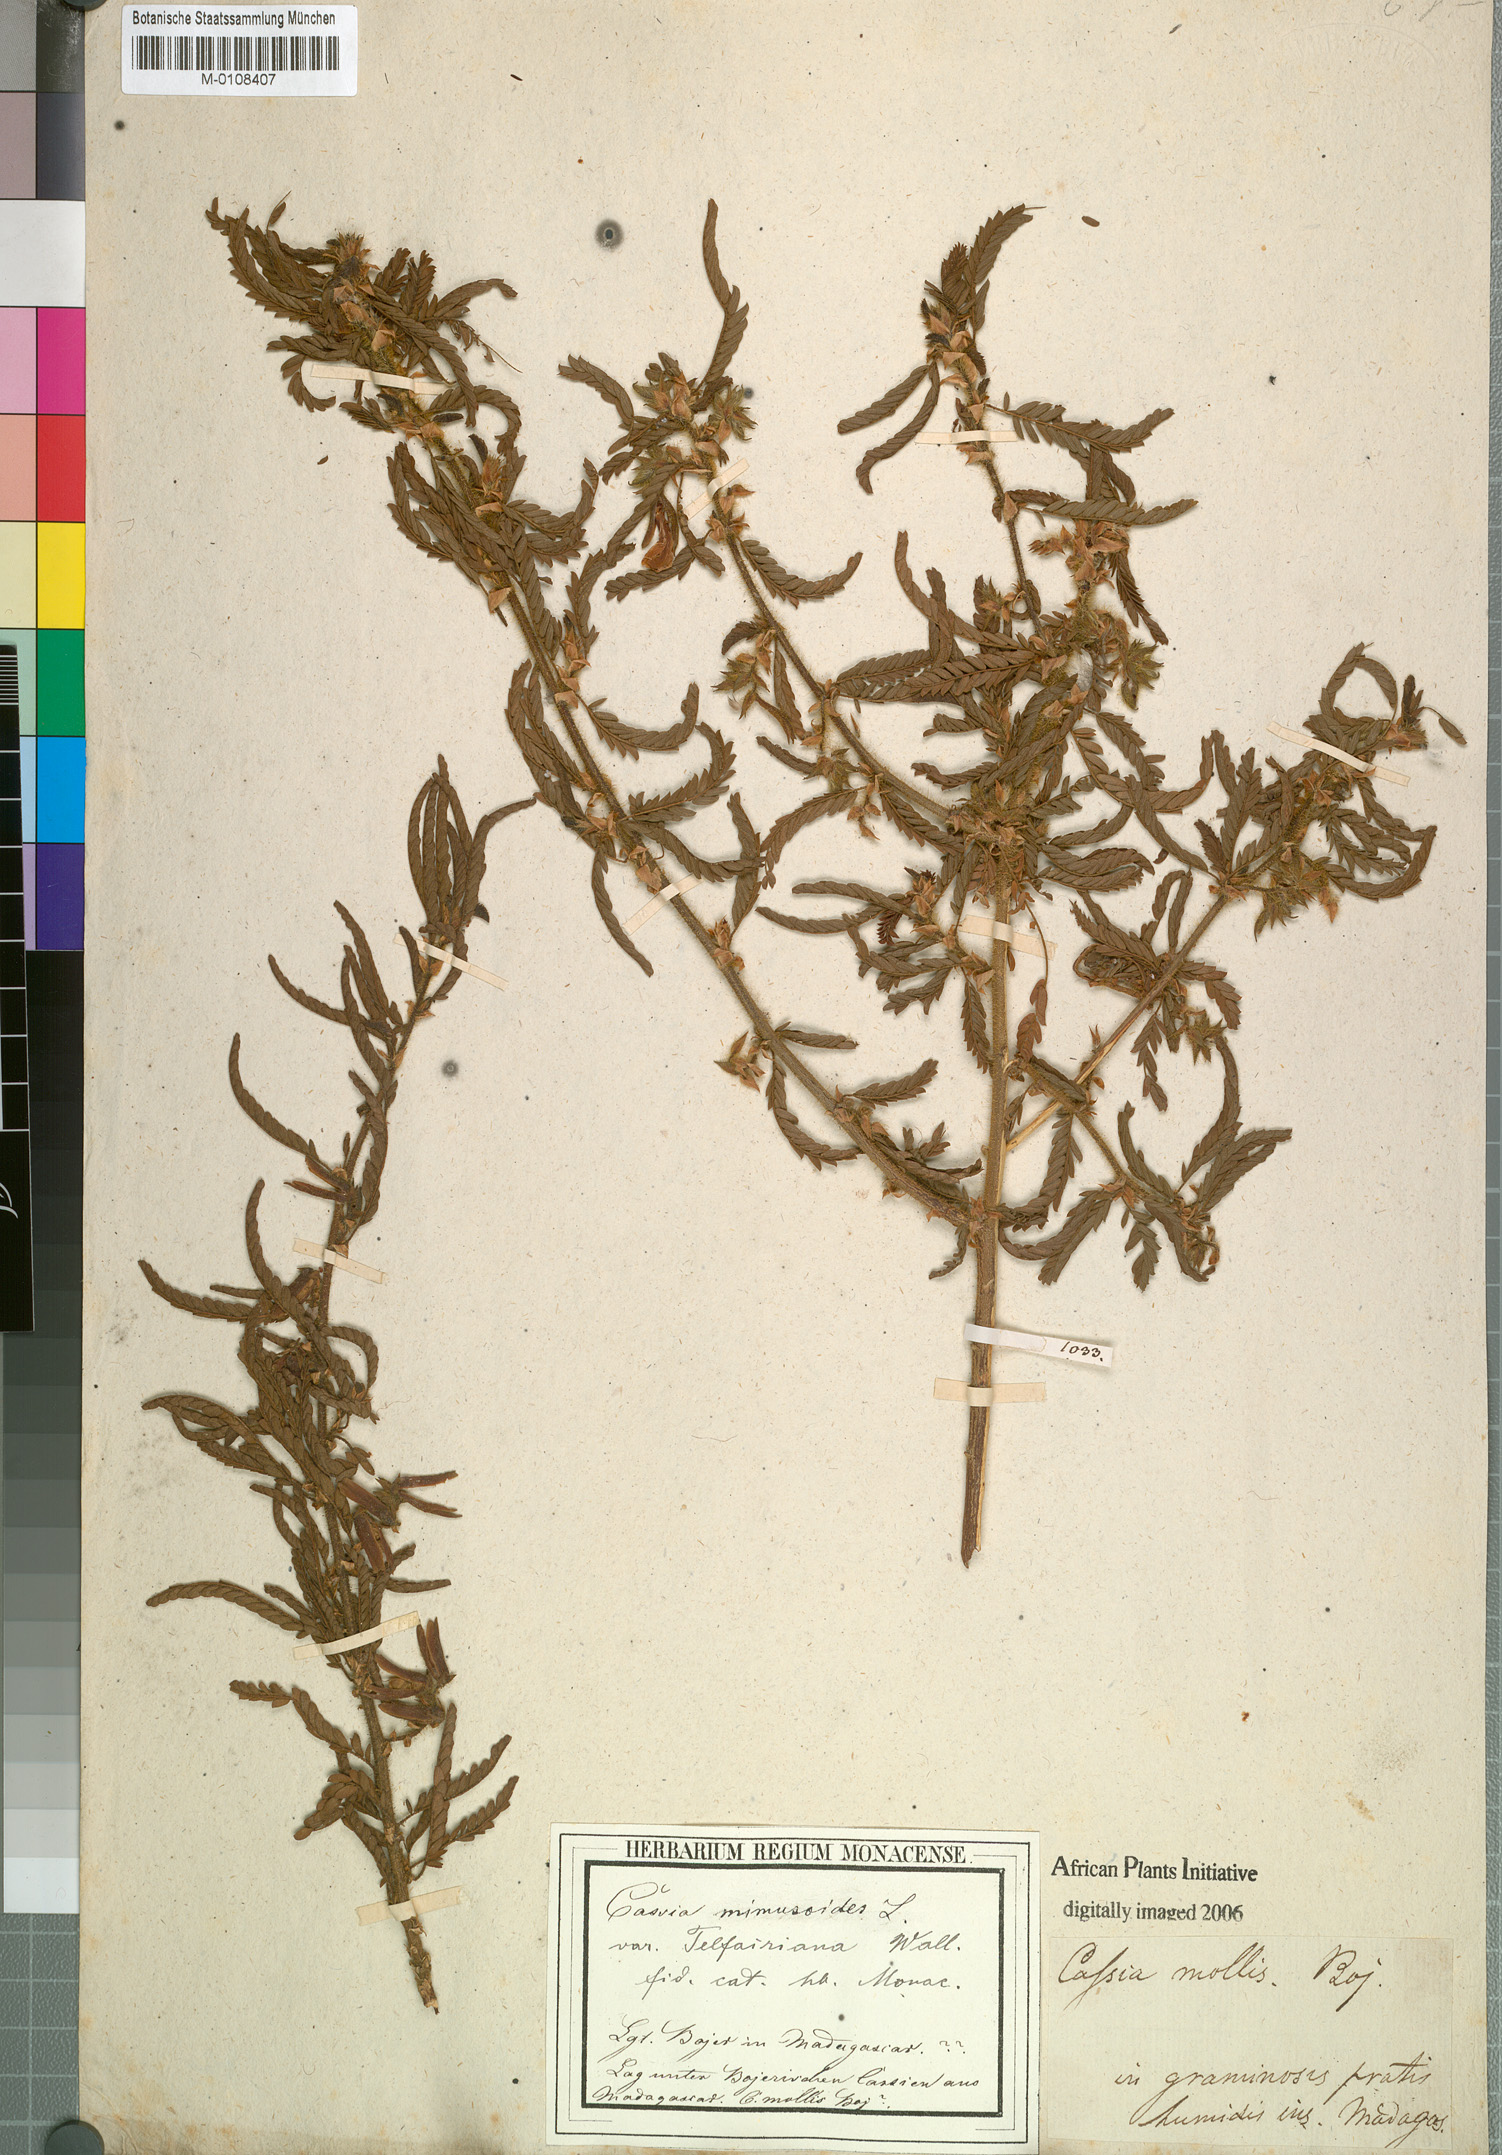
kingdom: Plantae
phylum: Tracheophyta
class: Magnoliopsida
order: Fabales
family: Fabaceae
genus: Chamaecrista
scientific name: Chamaecrista mimosoides
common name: Fish-bone cassia
